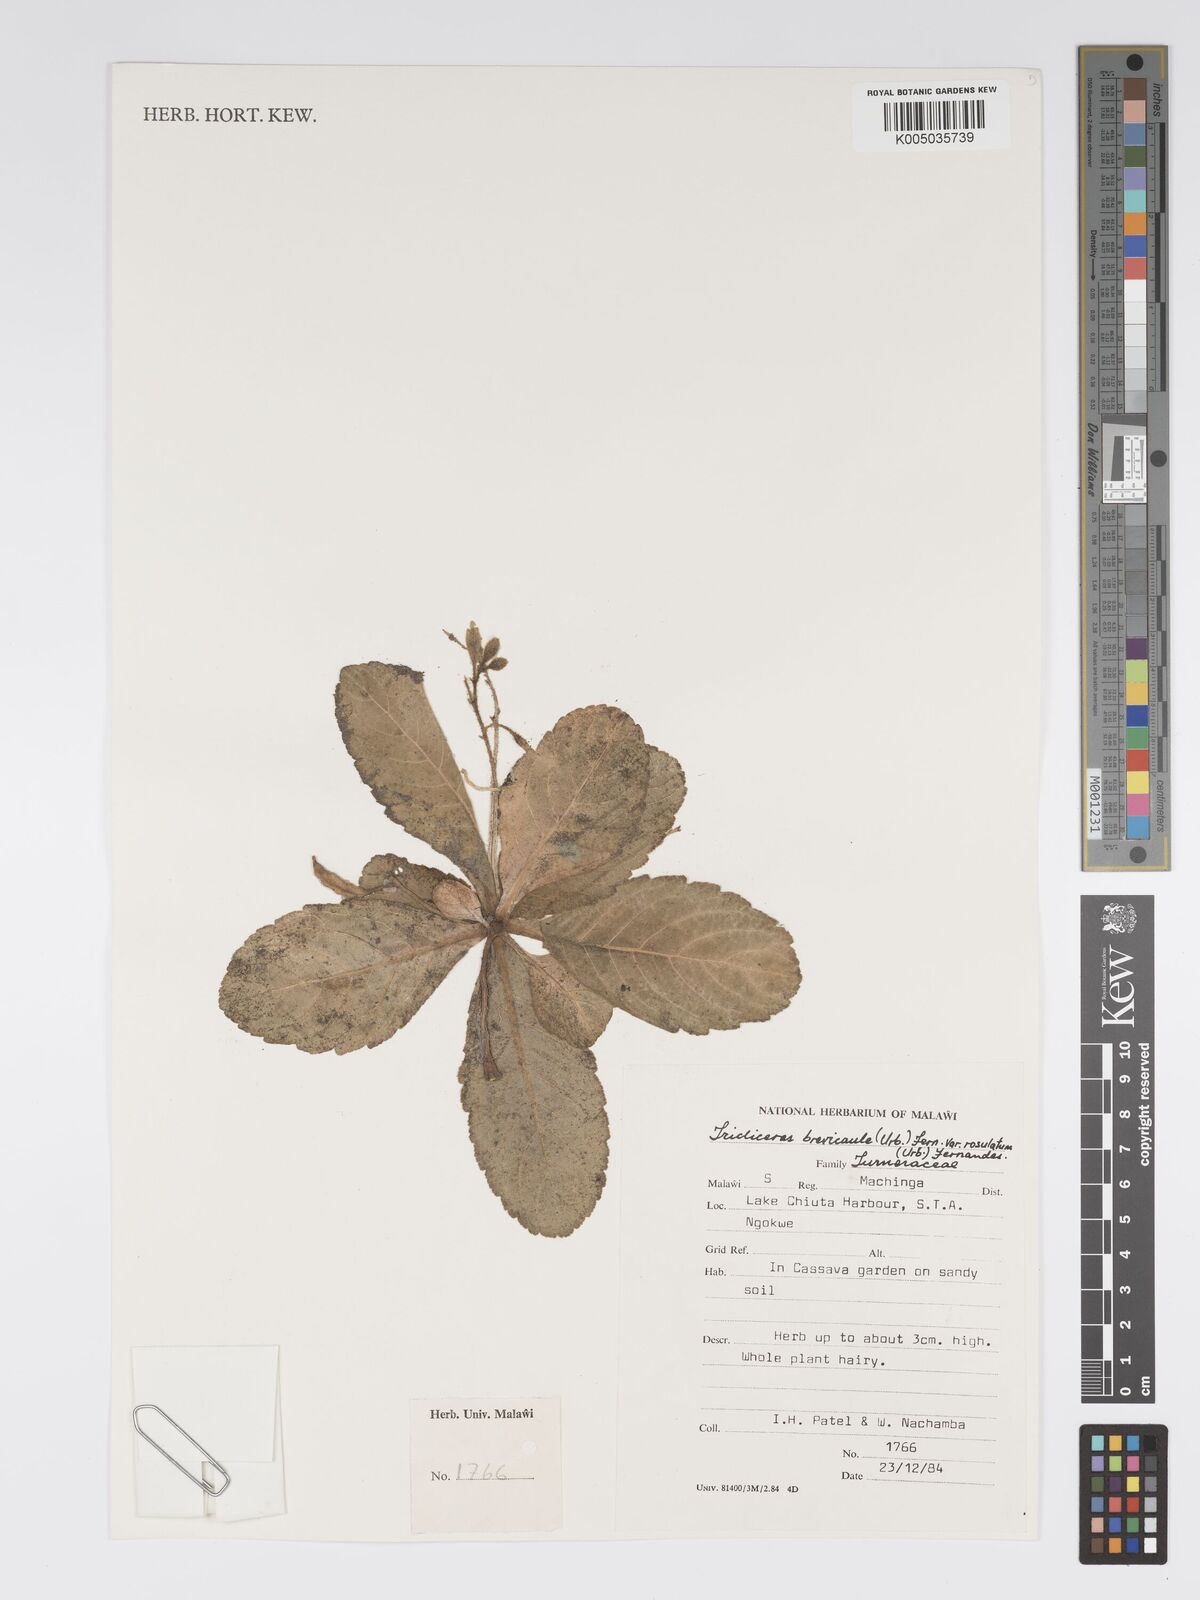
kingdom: Plantae
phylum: Tracheophyta
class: Magnoliopsida
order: Malpighiales
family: Turneraceae
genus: Tricliceras
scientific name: Tricliceras brevicaule
